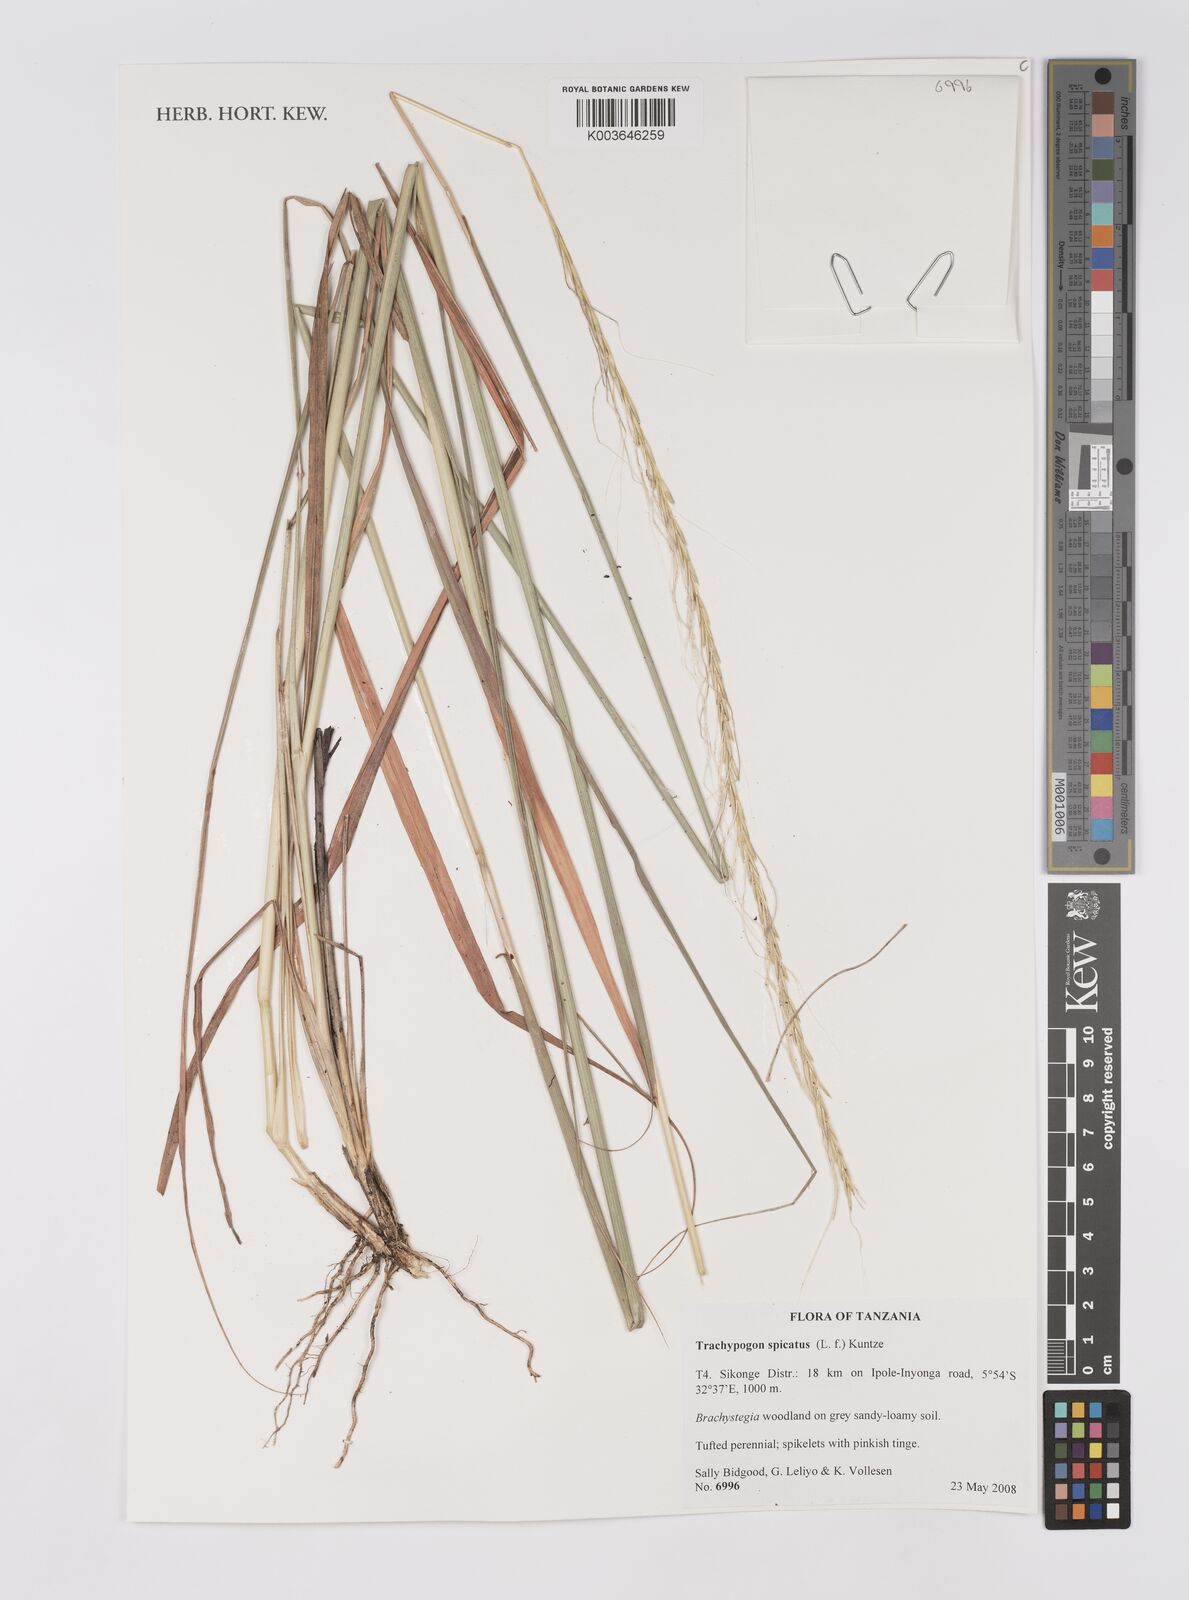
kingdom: Plantae
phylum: Tracheophyta
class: Liliopsida
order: Poales
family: Poaceae
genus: Trachypogon
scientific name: Trachypogon spicatus
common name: Crinkle-awn
